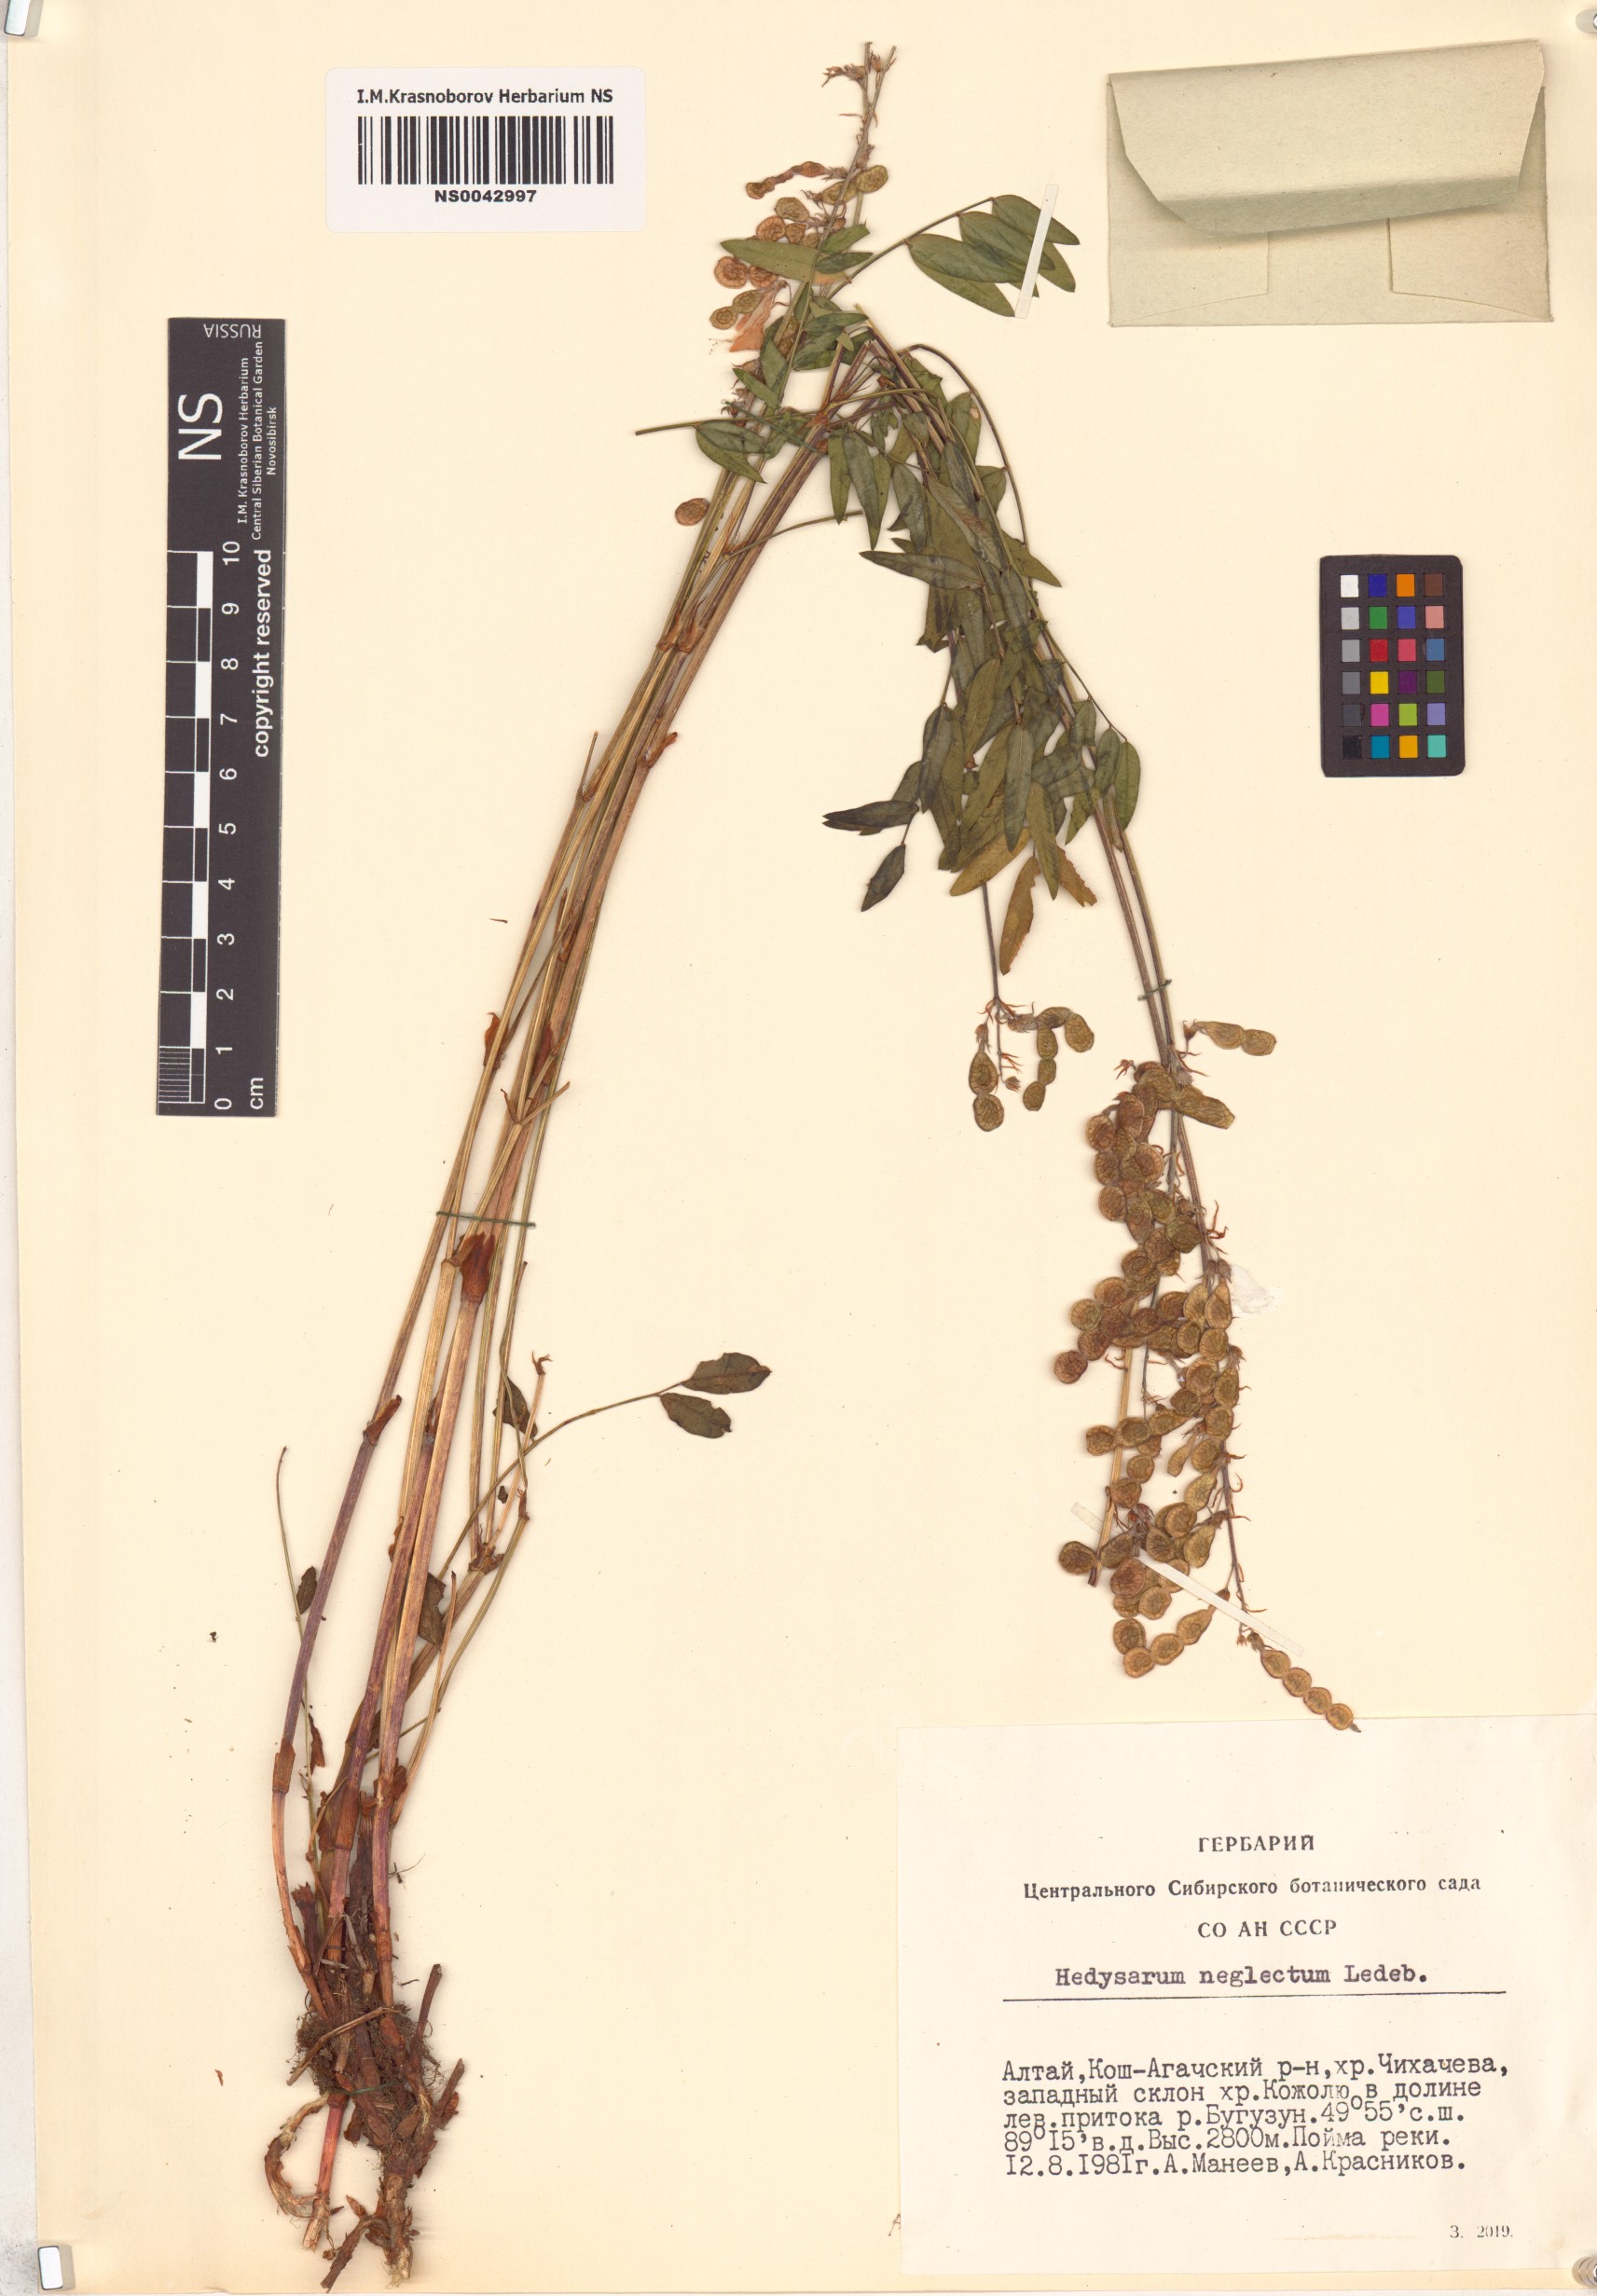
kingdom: Plantae
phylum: Tracheophyta
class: Magnoliopsida
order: Fabales
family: Fabaceae
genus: Hedysarum
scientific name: Hedysarum neglectum
